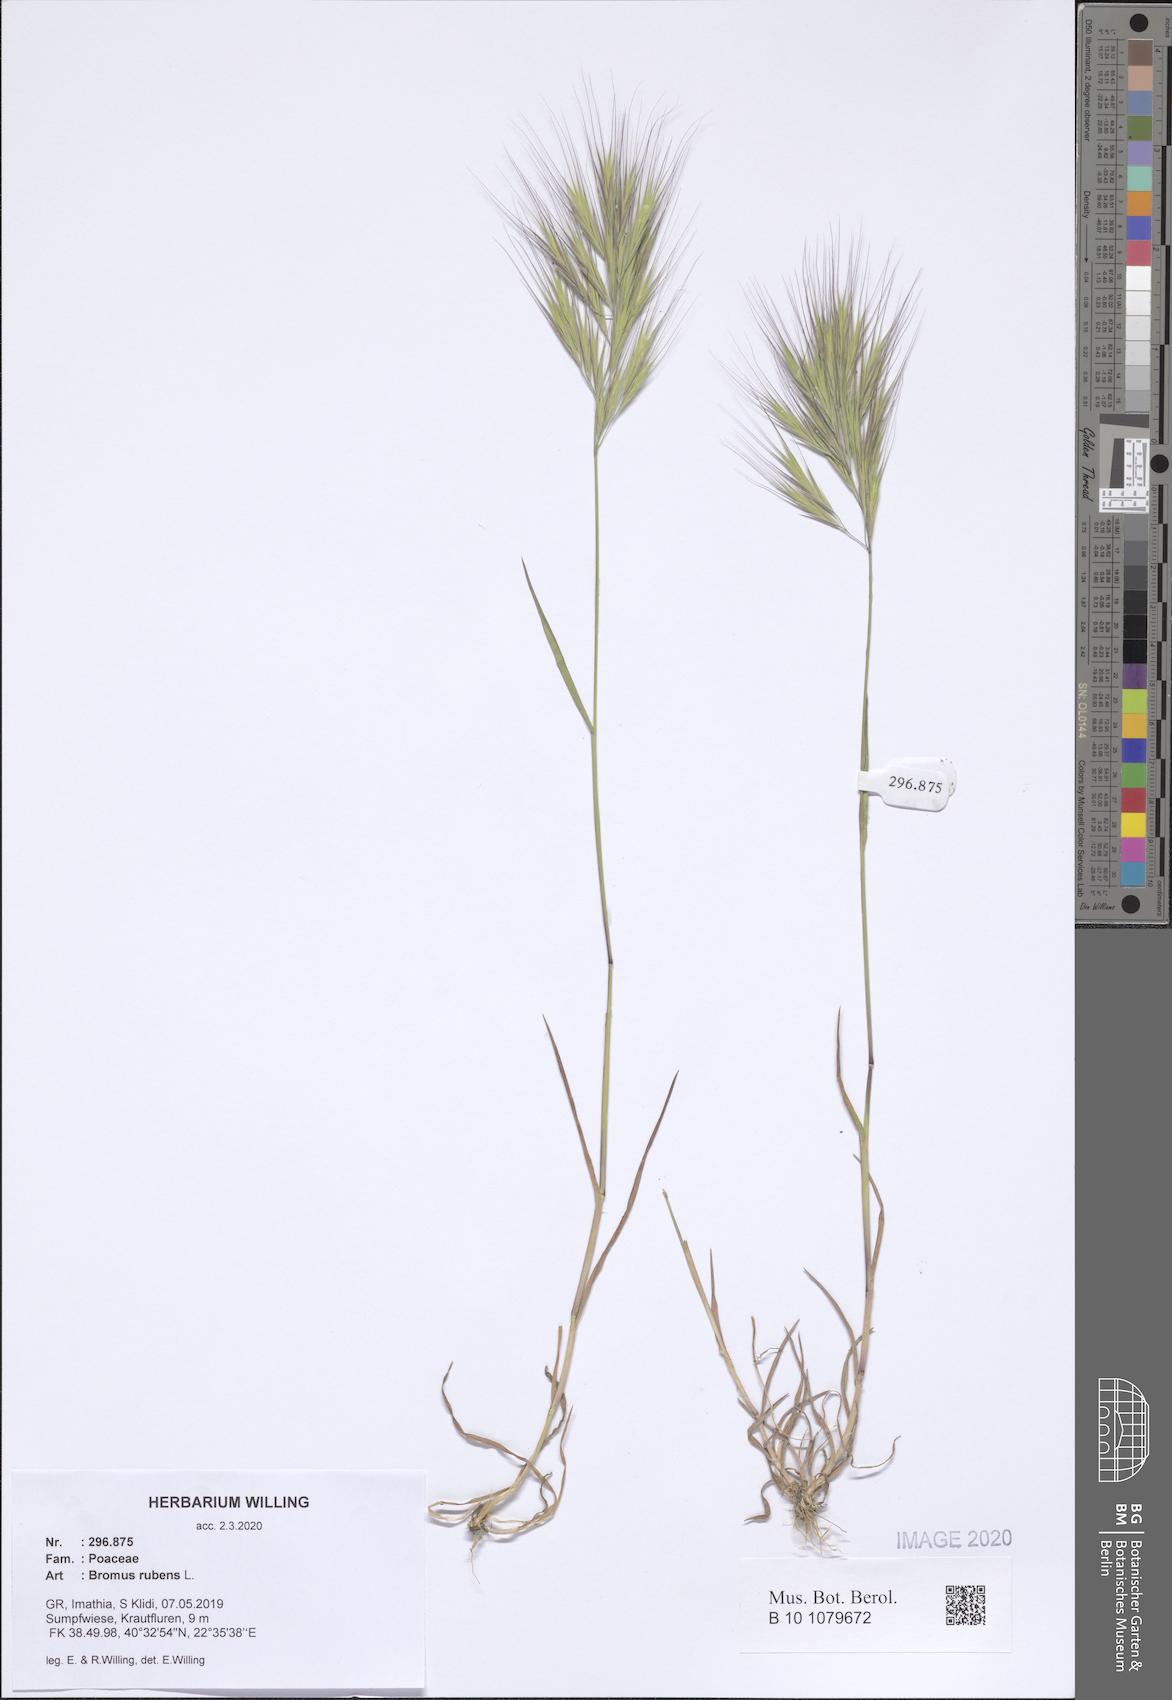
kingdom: Plantae
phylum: Tracheophyta
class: Liliopsida
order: Poales
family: Poaceae
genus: Bromus
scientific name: Bromus rubens
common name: Red brome
